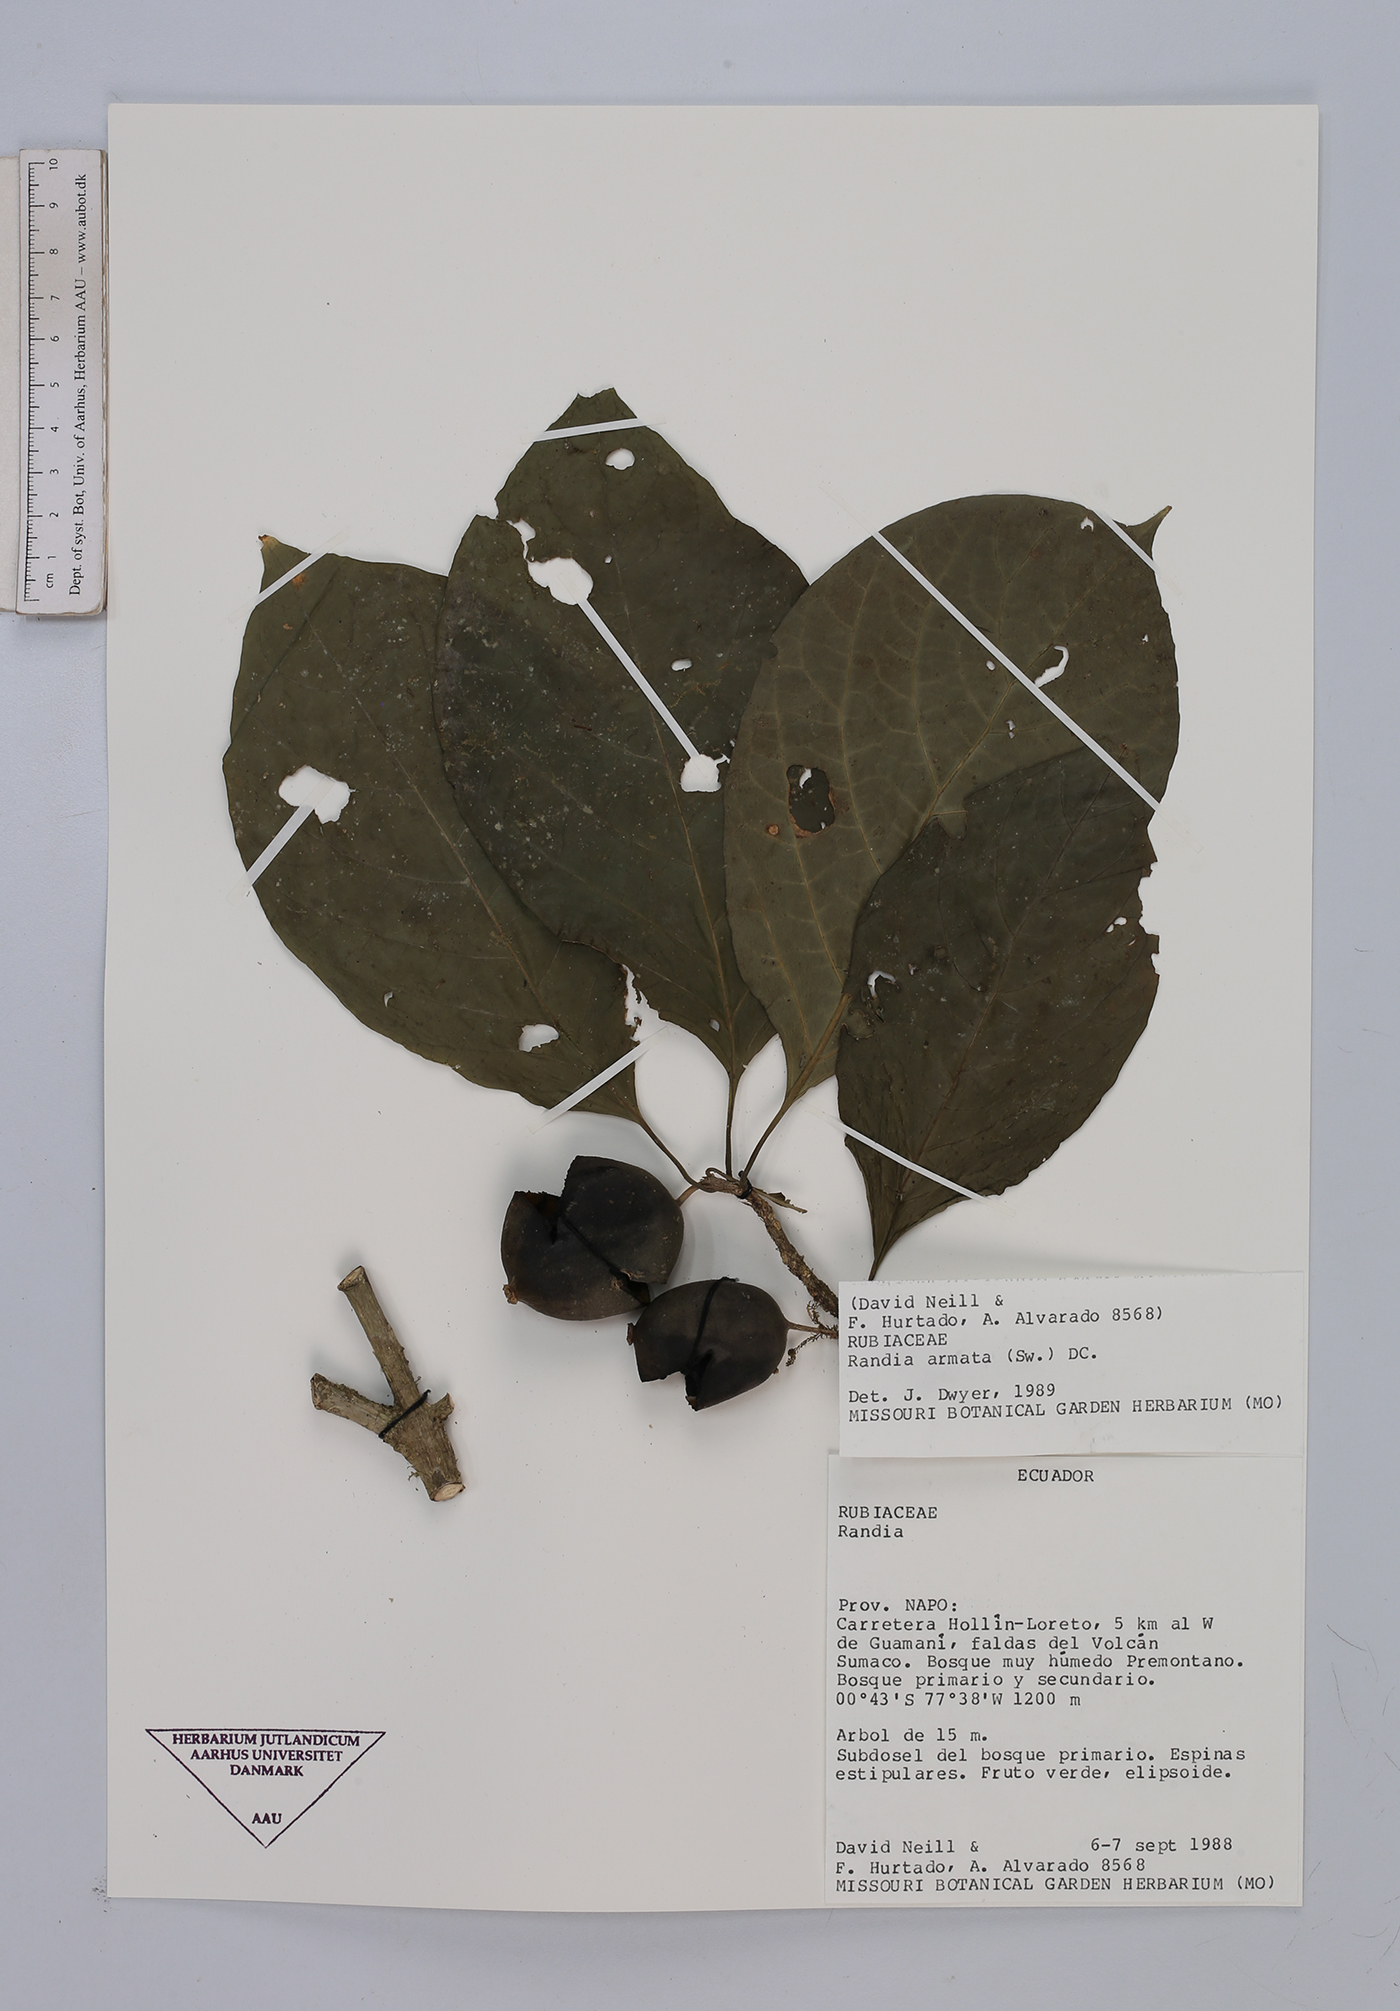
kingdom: Plantae
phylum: Tracheophyta
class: Magnoliopsida
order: Gentianales
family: Rubiaceae
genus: Randia
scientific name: Randia armata
